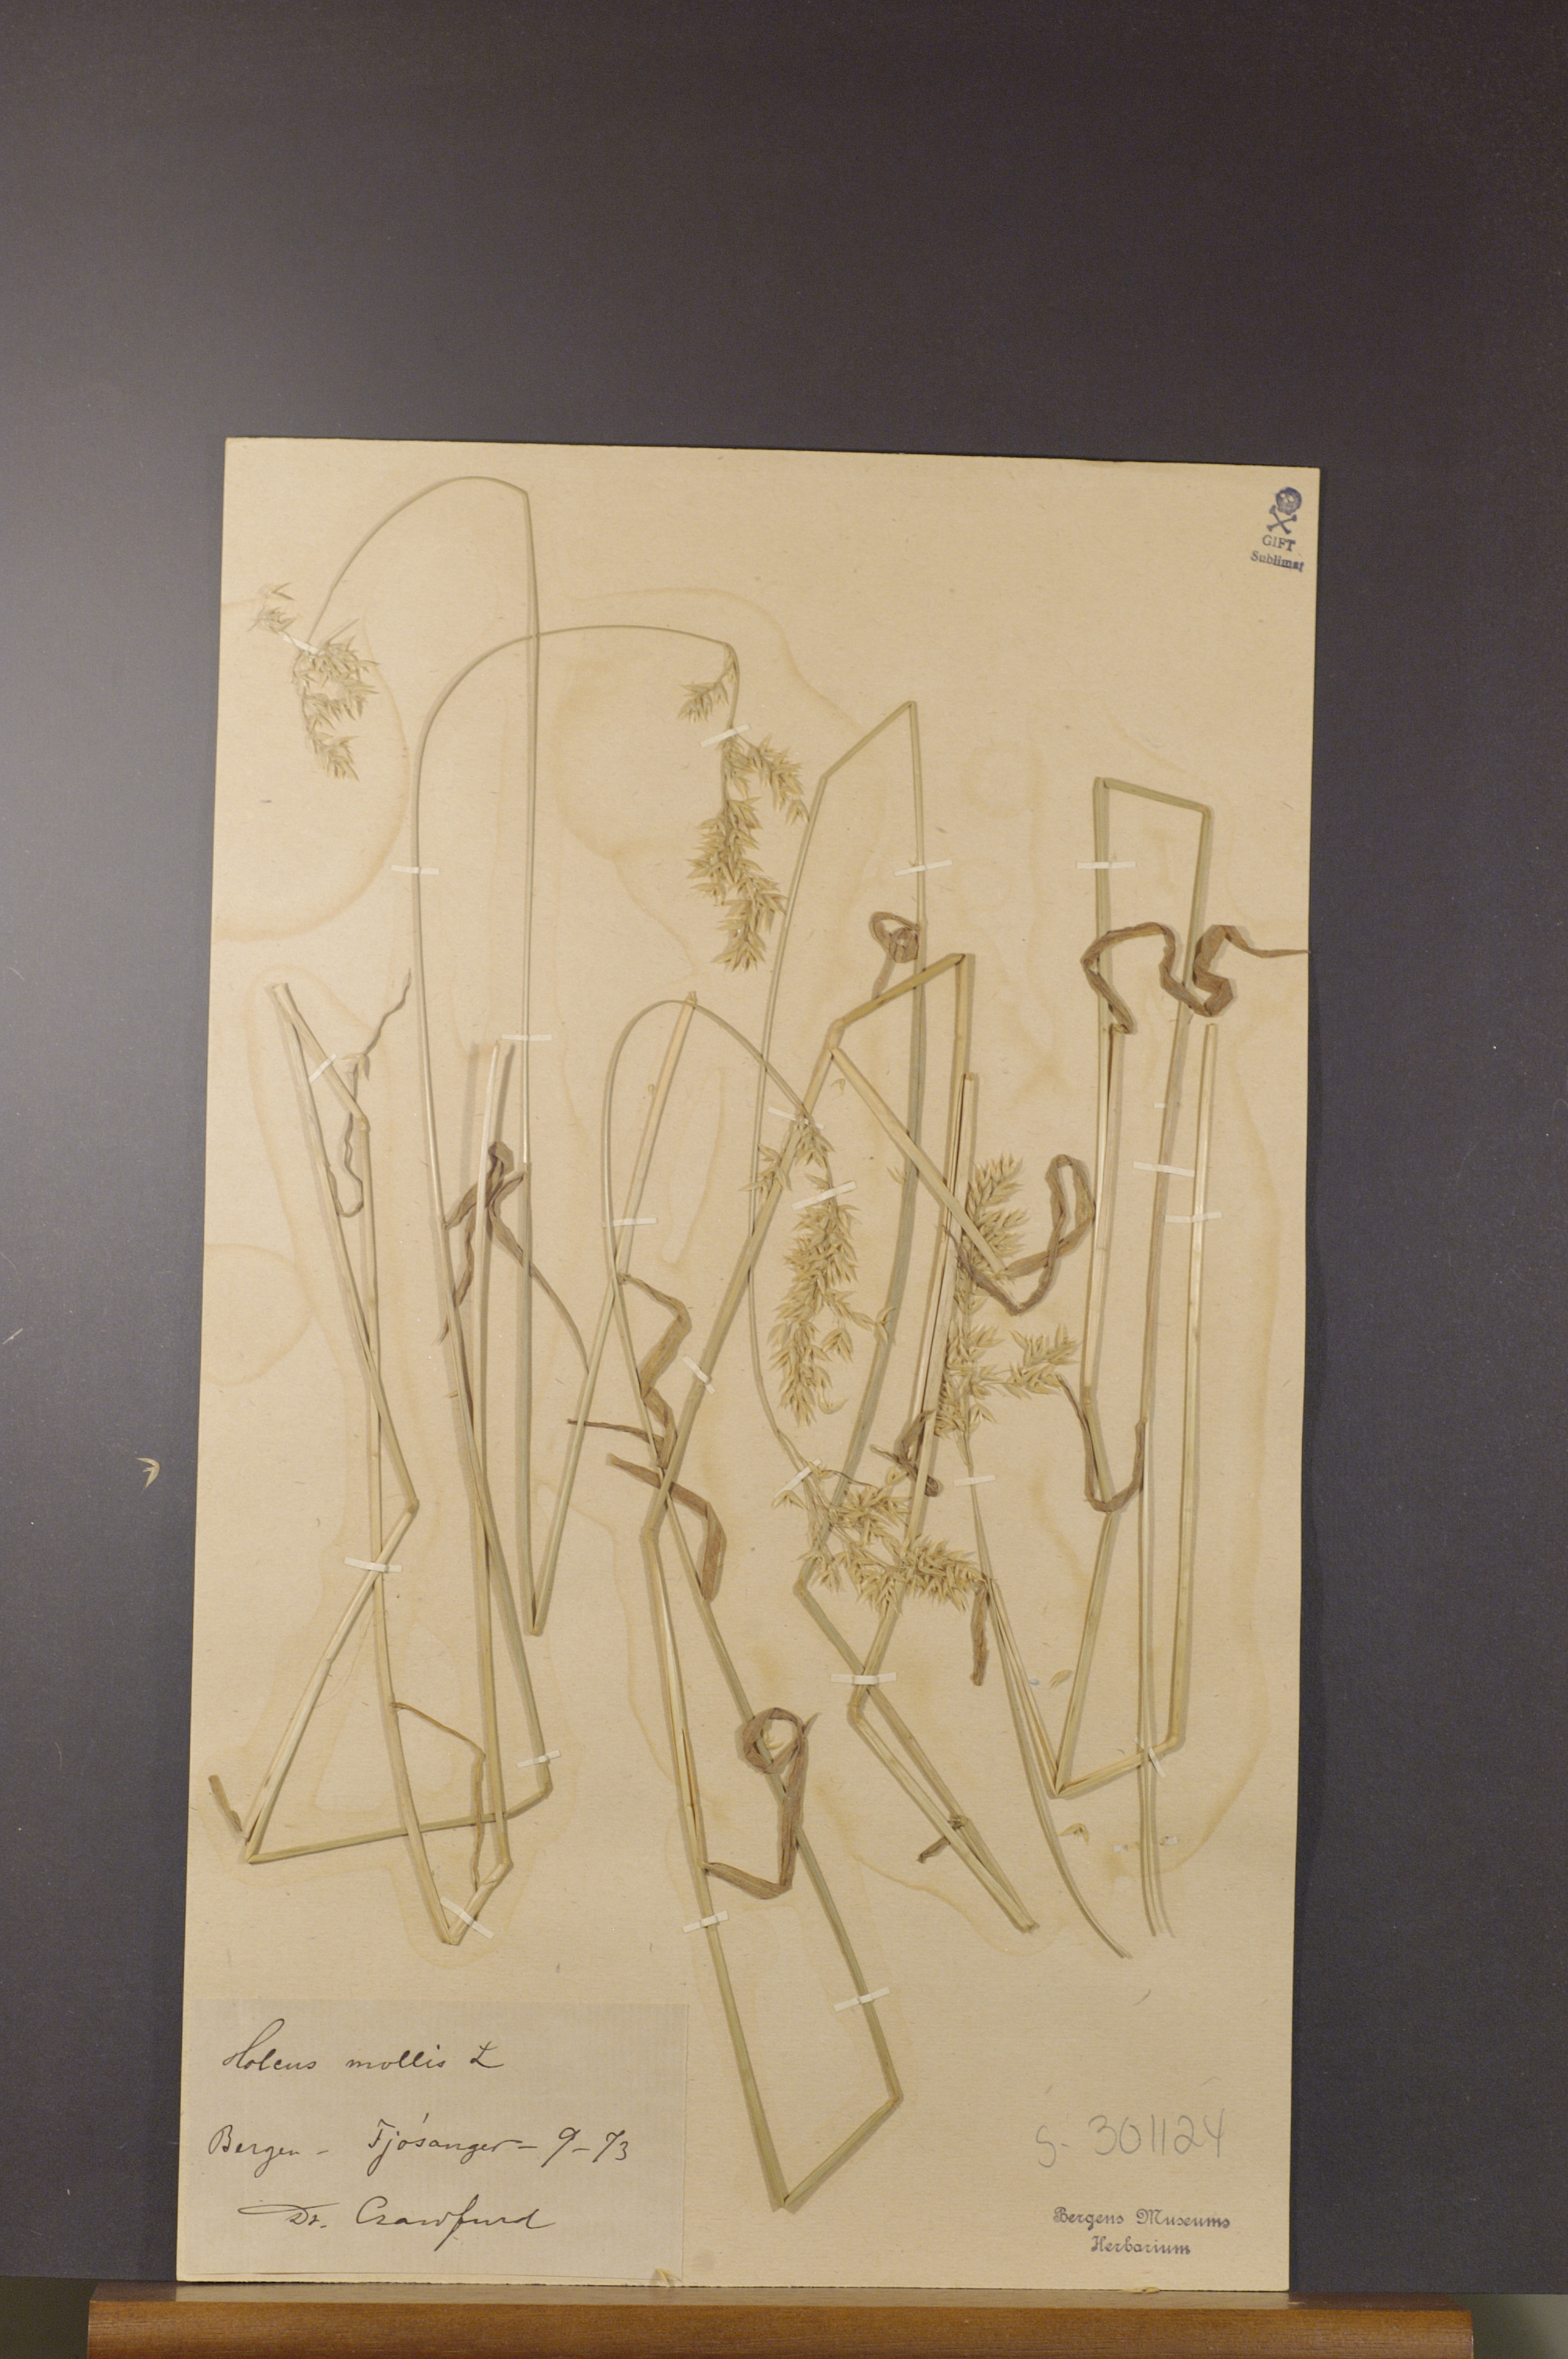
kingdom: Plantae
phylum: Tracheophyta
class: Liliopsida
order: Poales
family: Poaceae
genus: Holcus
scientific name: Holcus mollis
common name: Creeping velvetgrass
